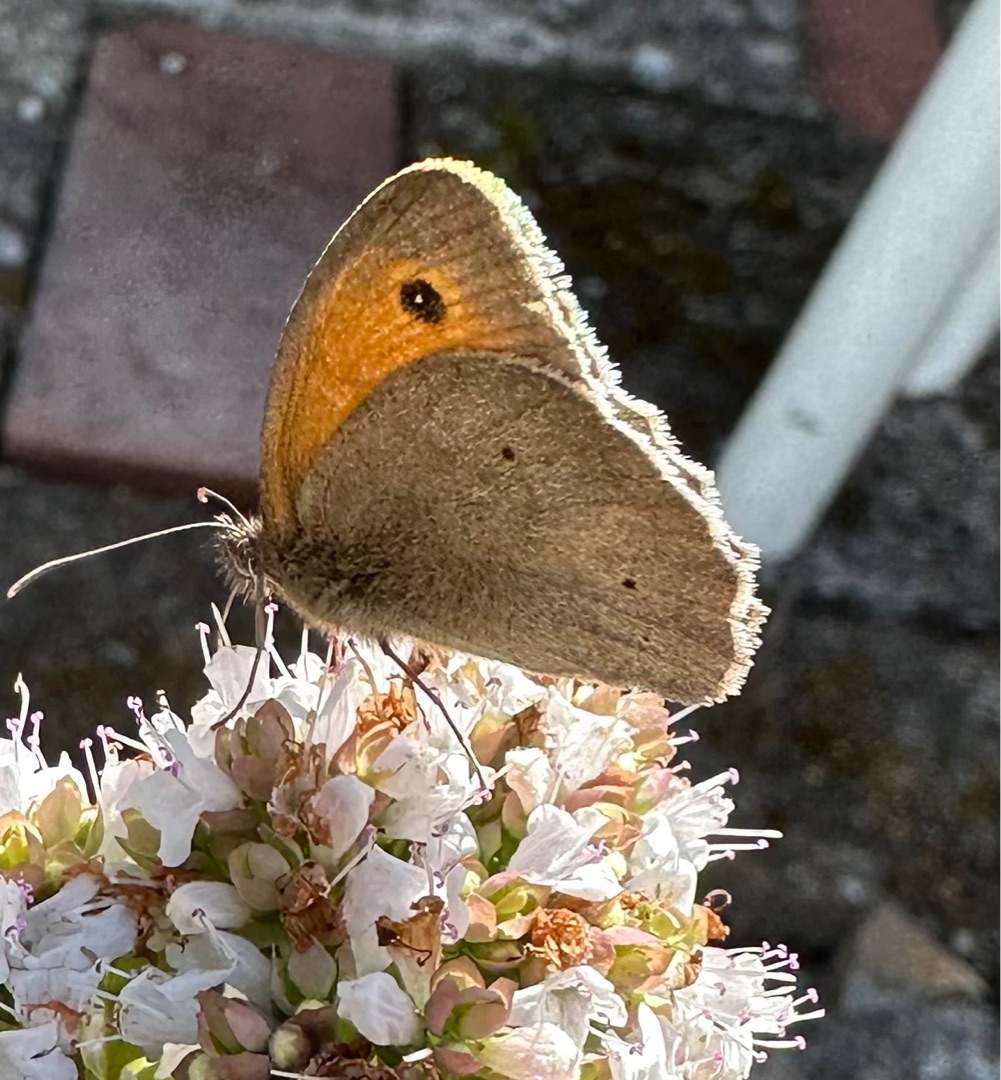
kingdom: Animalia
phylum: Arthropoda
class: Insecta
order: Lepidoptera
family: Nymphalidae
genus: Maniola
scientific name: Maniola jurtina
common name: Græsrandøje
